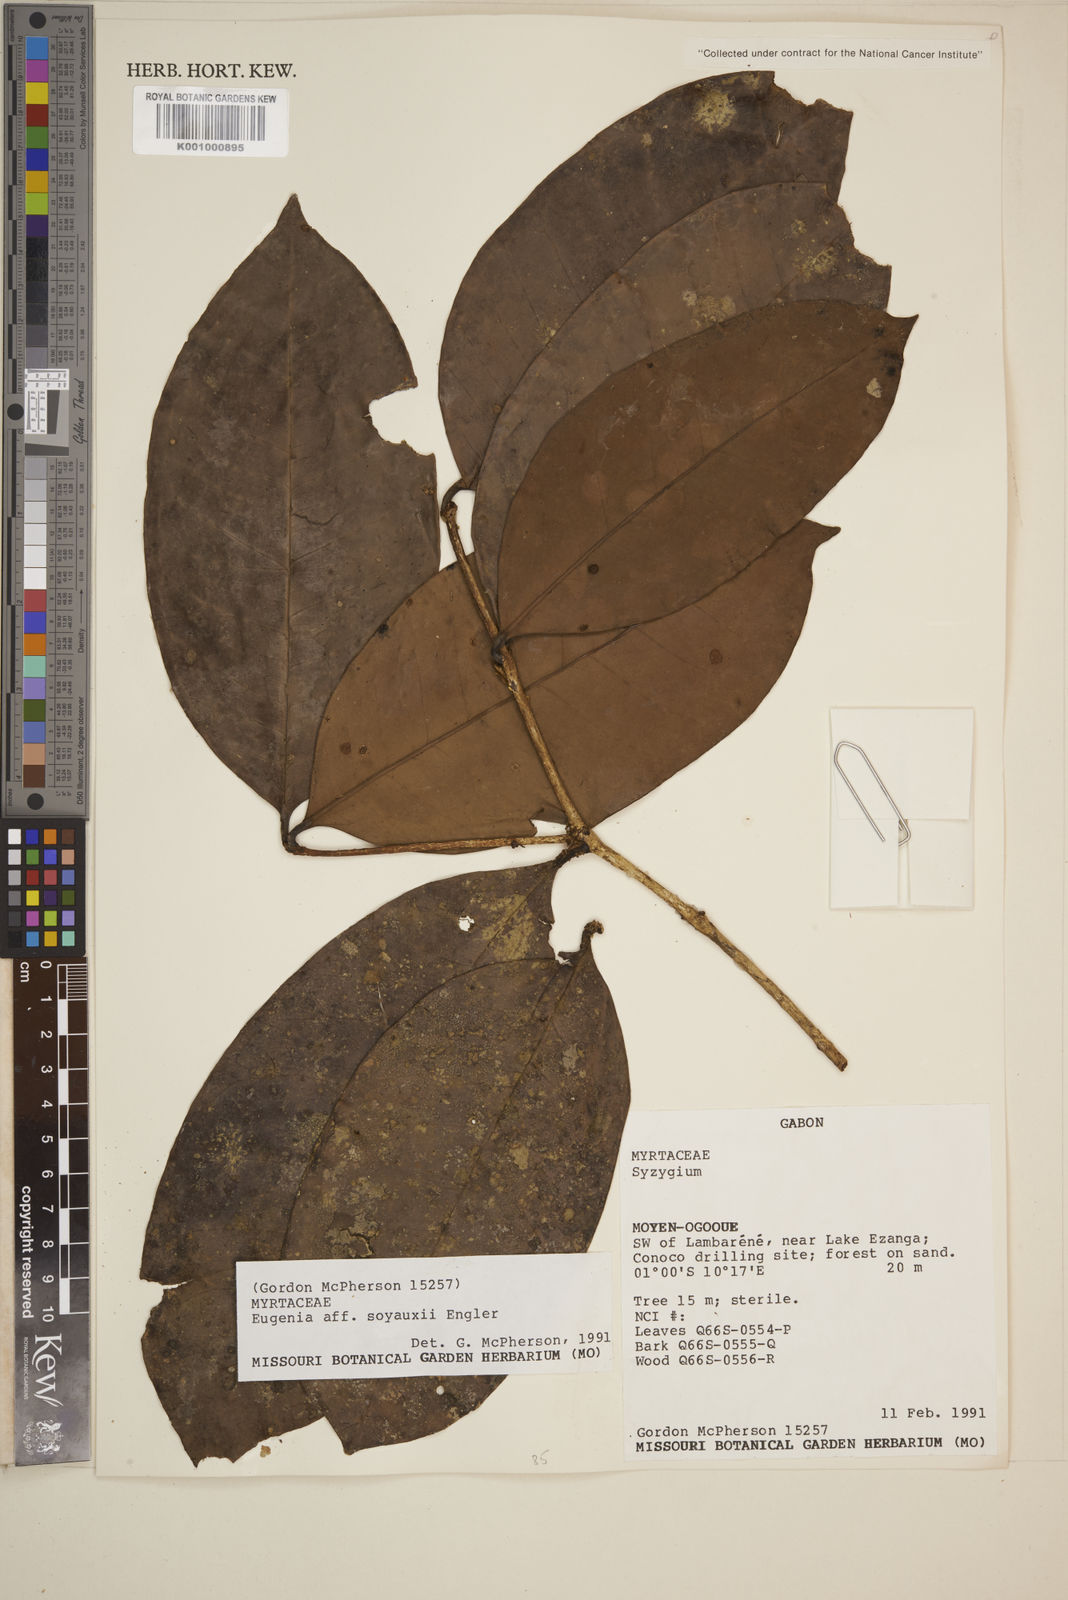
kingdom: Plantae
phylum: Tracheophyta
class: Magnoliopsida
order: Myrtales
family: Myrtaceae
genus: Eugenia
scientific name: Eugenia klaineana
